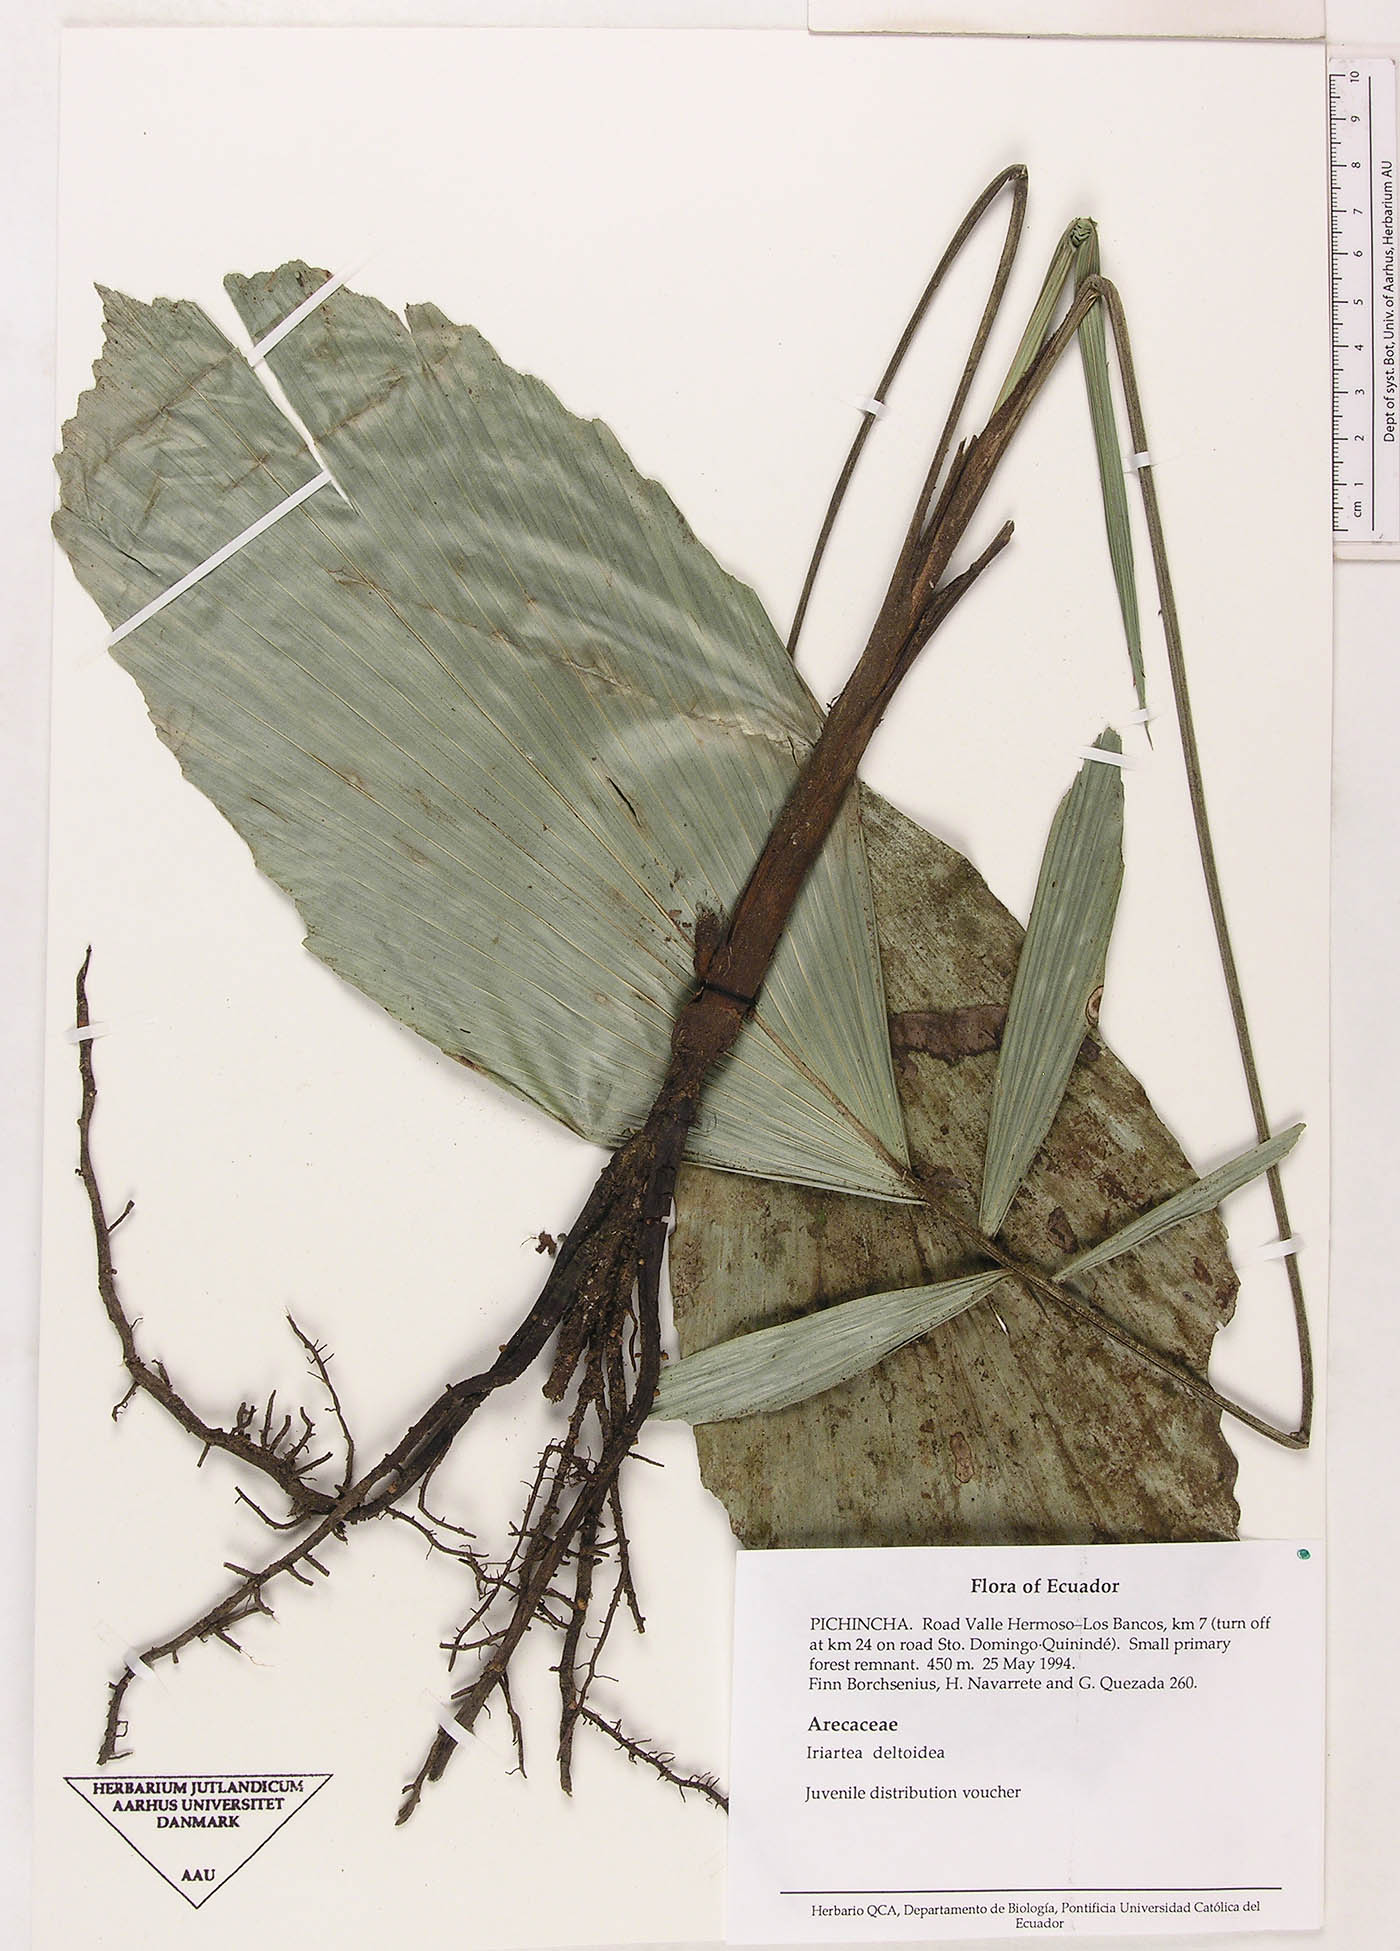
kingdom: Plantae
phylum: Tracheophyta
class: Liliopsida
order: Arecales
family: Arecaceae
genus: Iriartea
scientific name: Iriartea deltoidea
